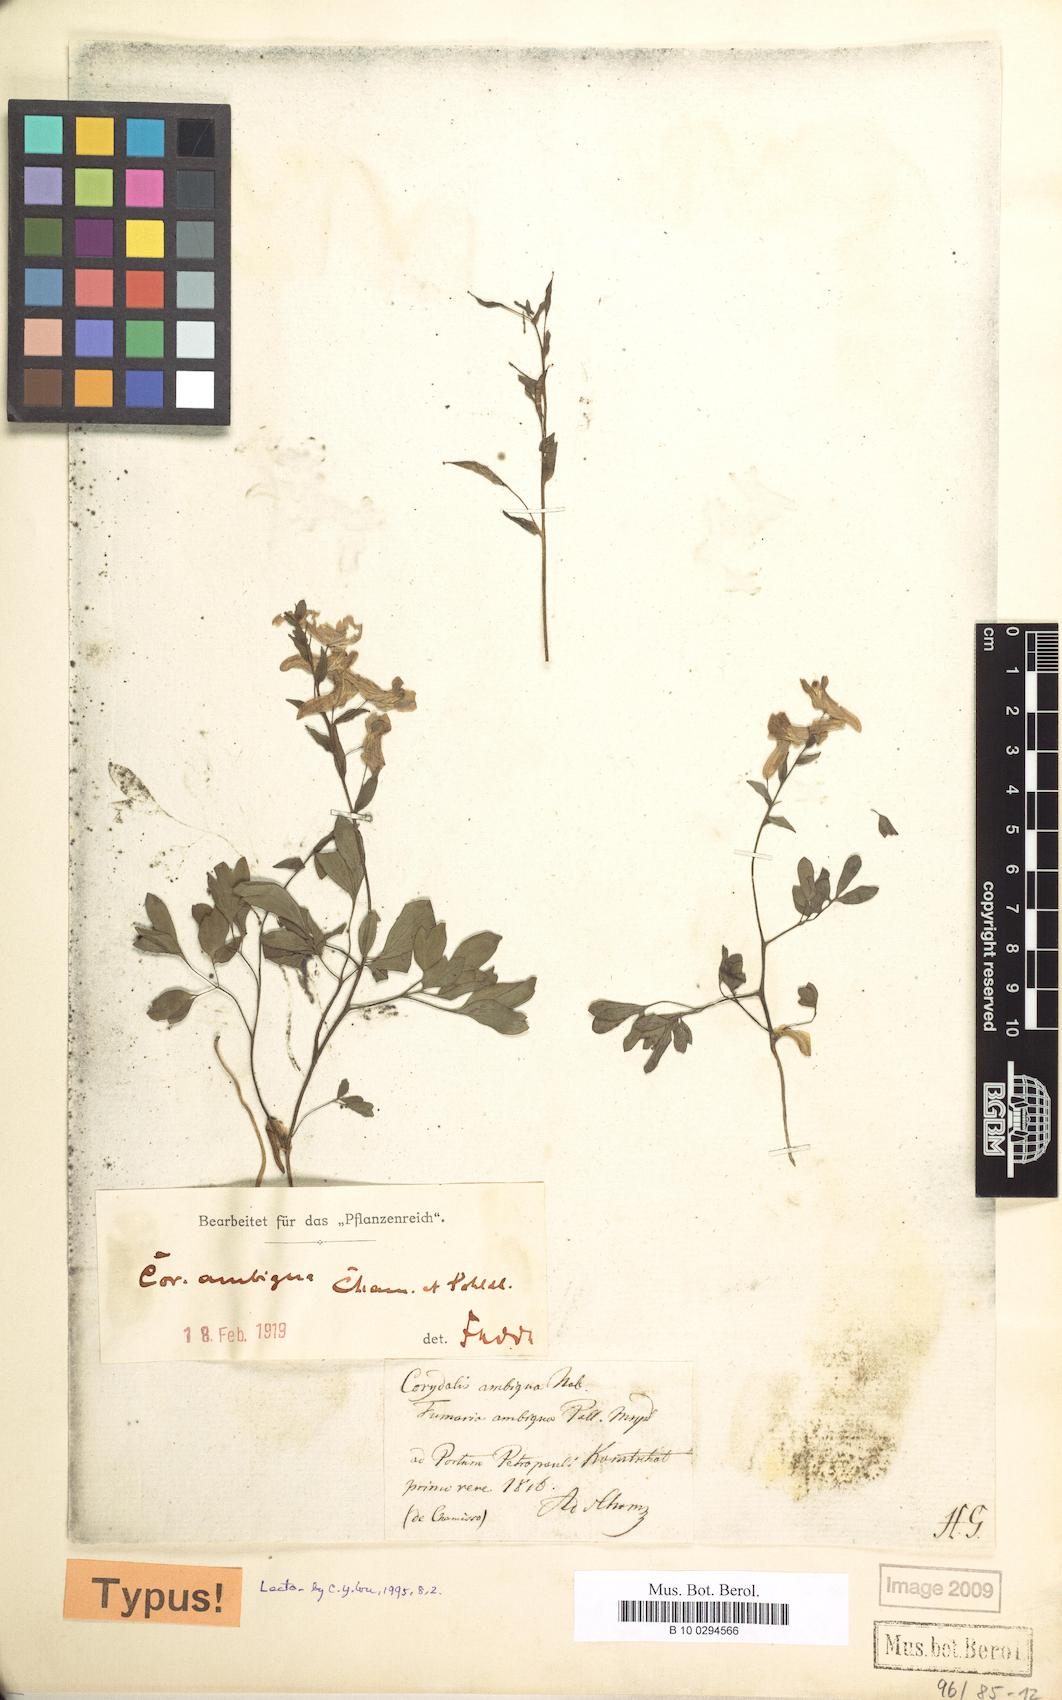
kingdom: Plantae
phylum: Tracheophyta
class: Magnoliopsida
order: Ranunculales
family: Papaveraceae
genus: Corydalis
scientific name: Corydalis ambigua
